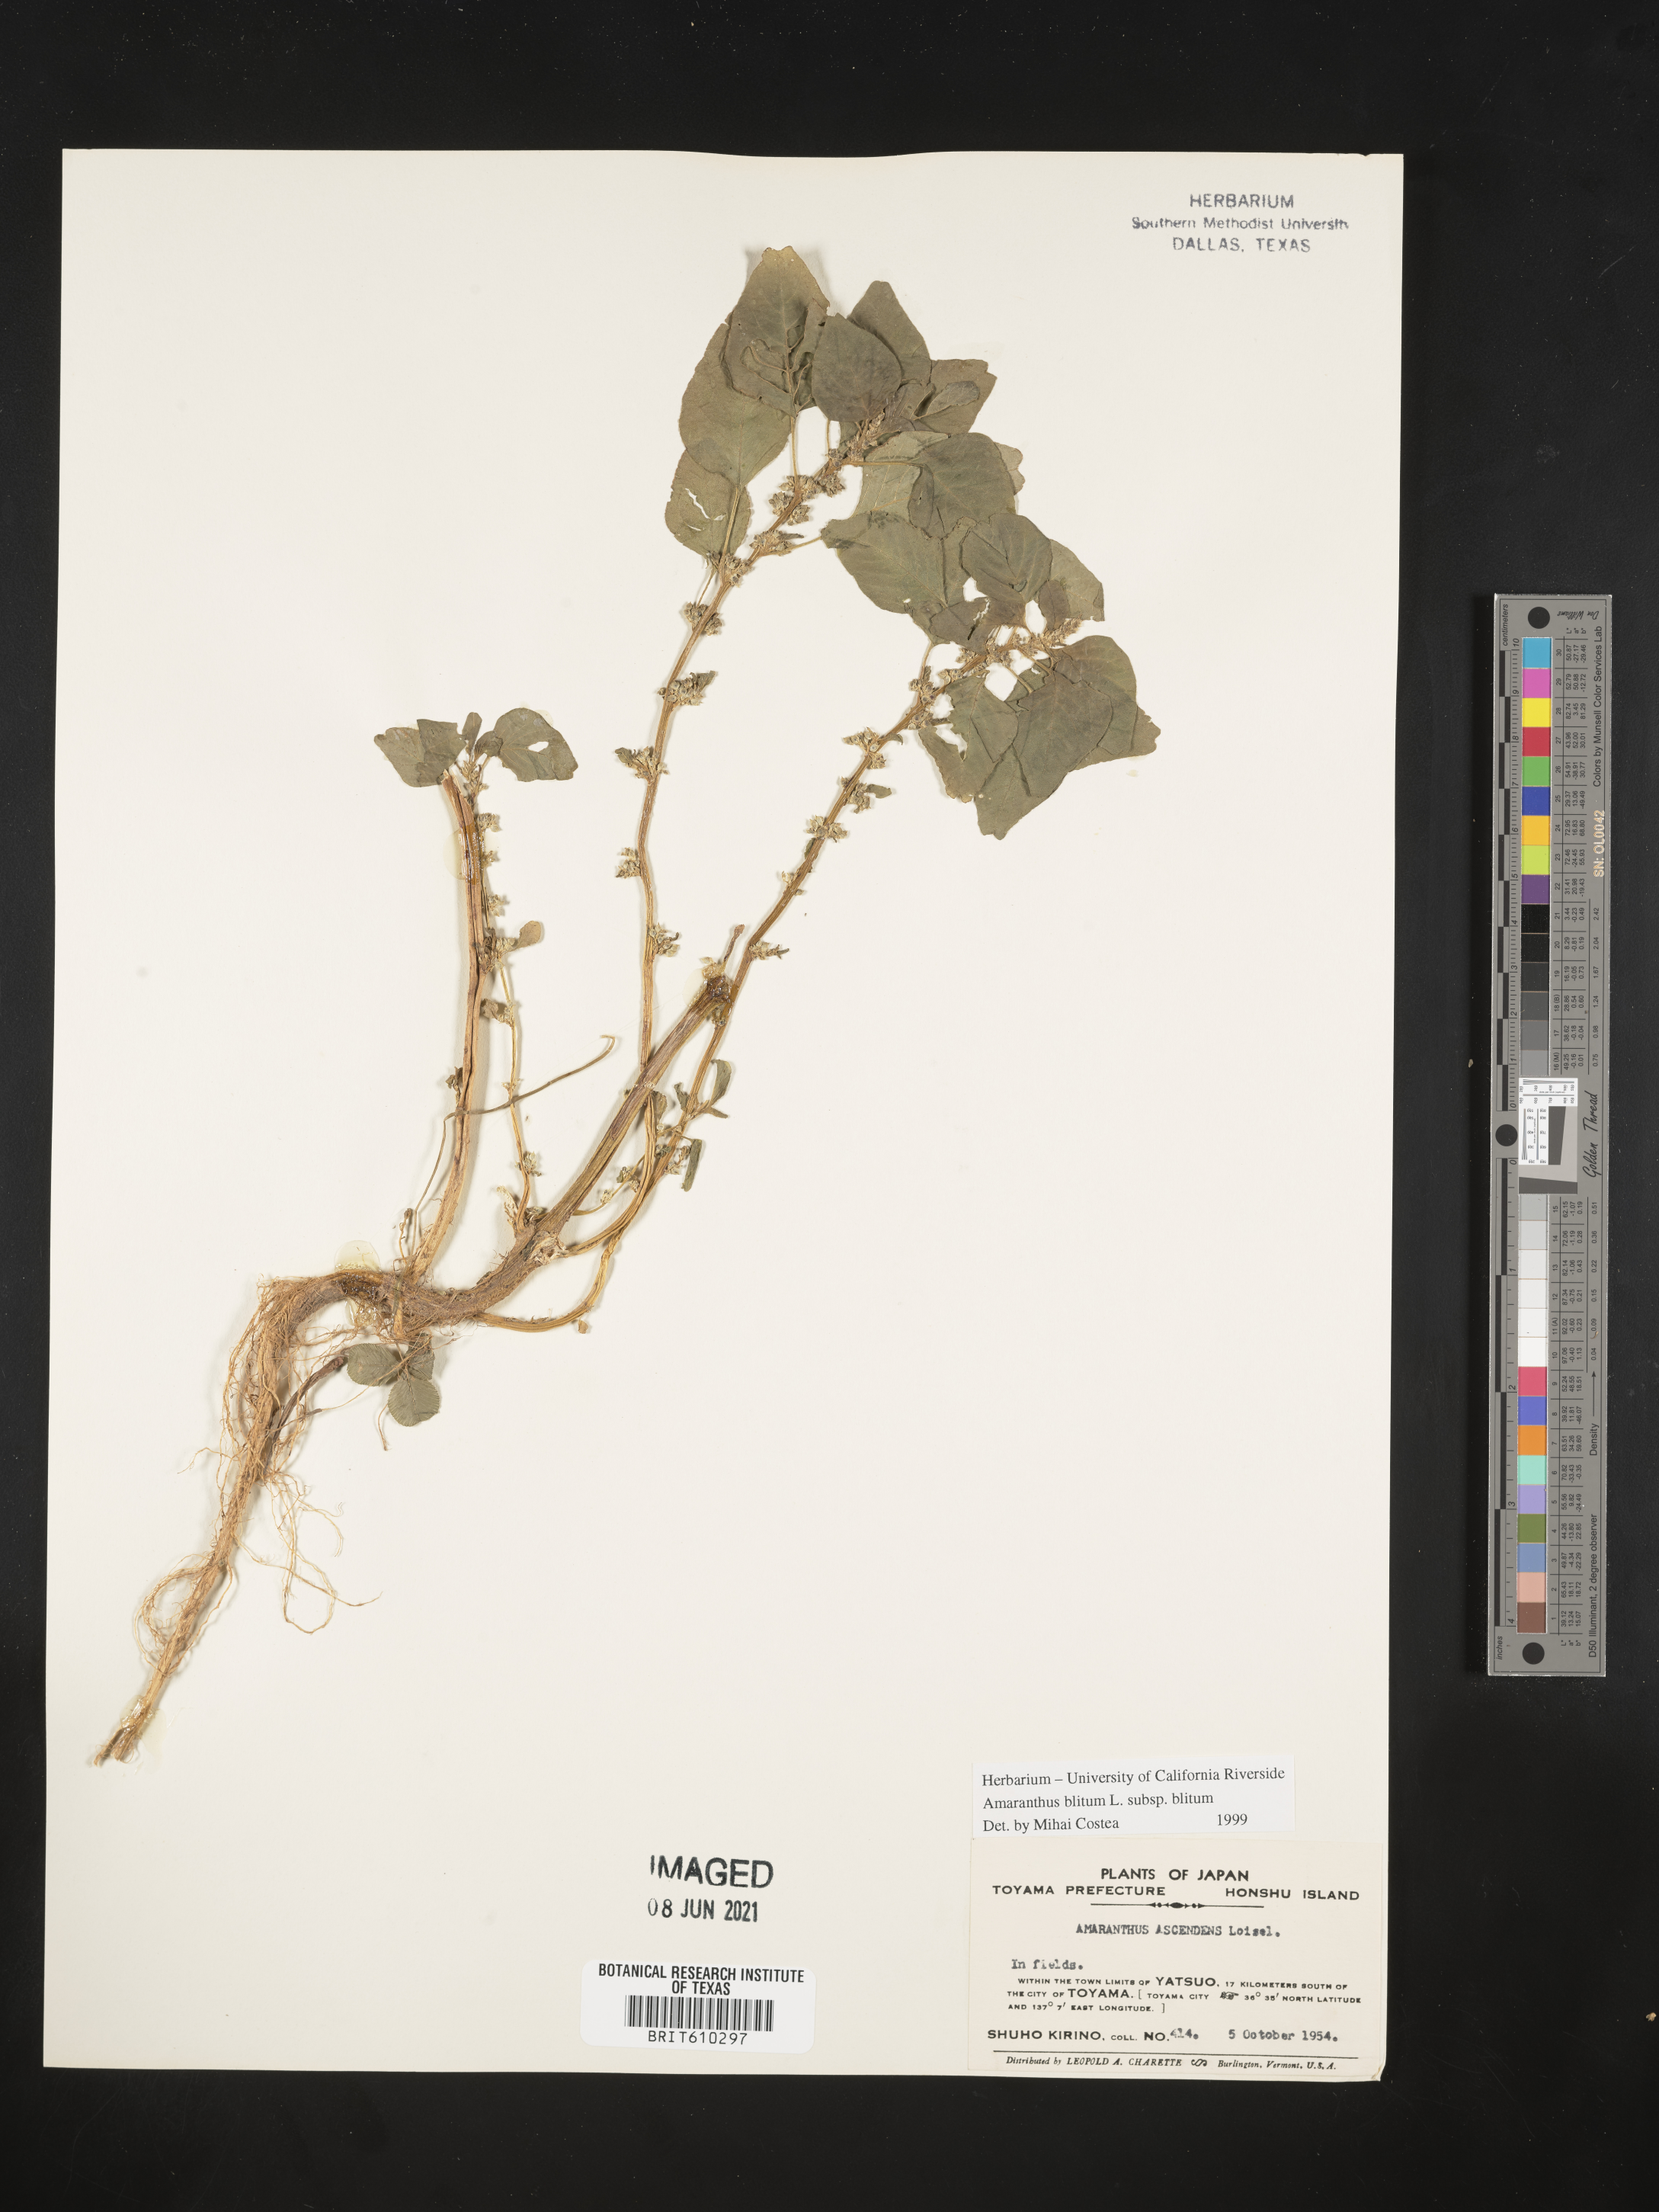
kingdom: Plantae
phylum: Tracheophyta
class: Magnoliopsida
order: Caryophyllales
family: Amaranthaceae
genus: Amaranthus
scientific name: Amaranthus blitum
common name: Purple amaranth
